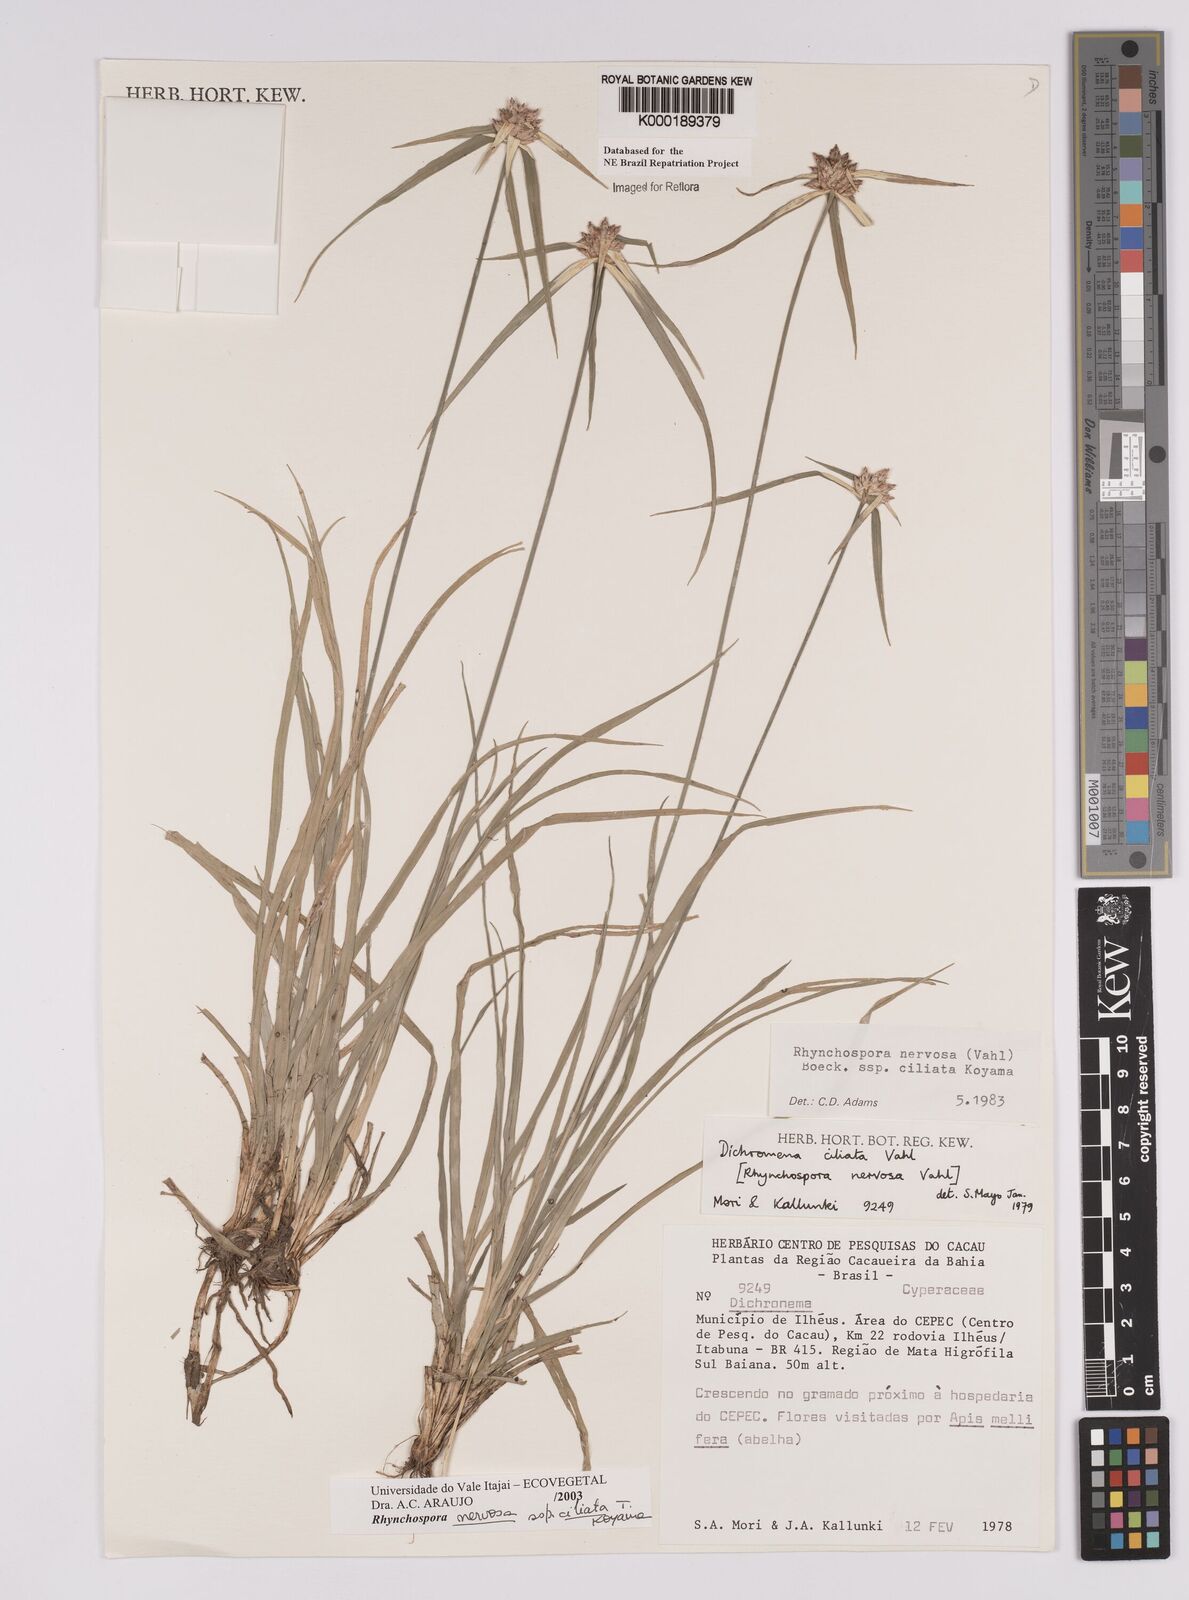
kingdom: Plantae
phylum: Tracheophyta
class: Liliopsida
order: Poales
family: Cyperaceae
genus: Rhynchospora
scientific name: Rhynchospora pura
